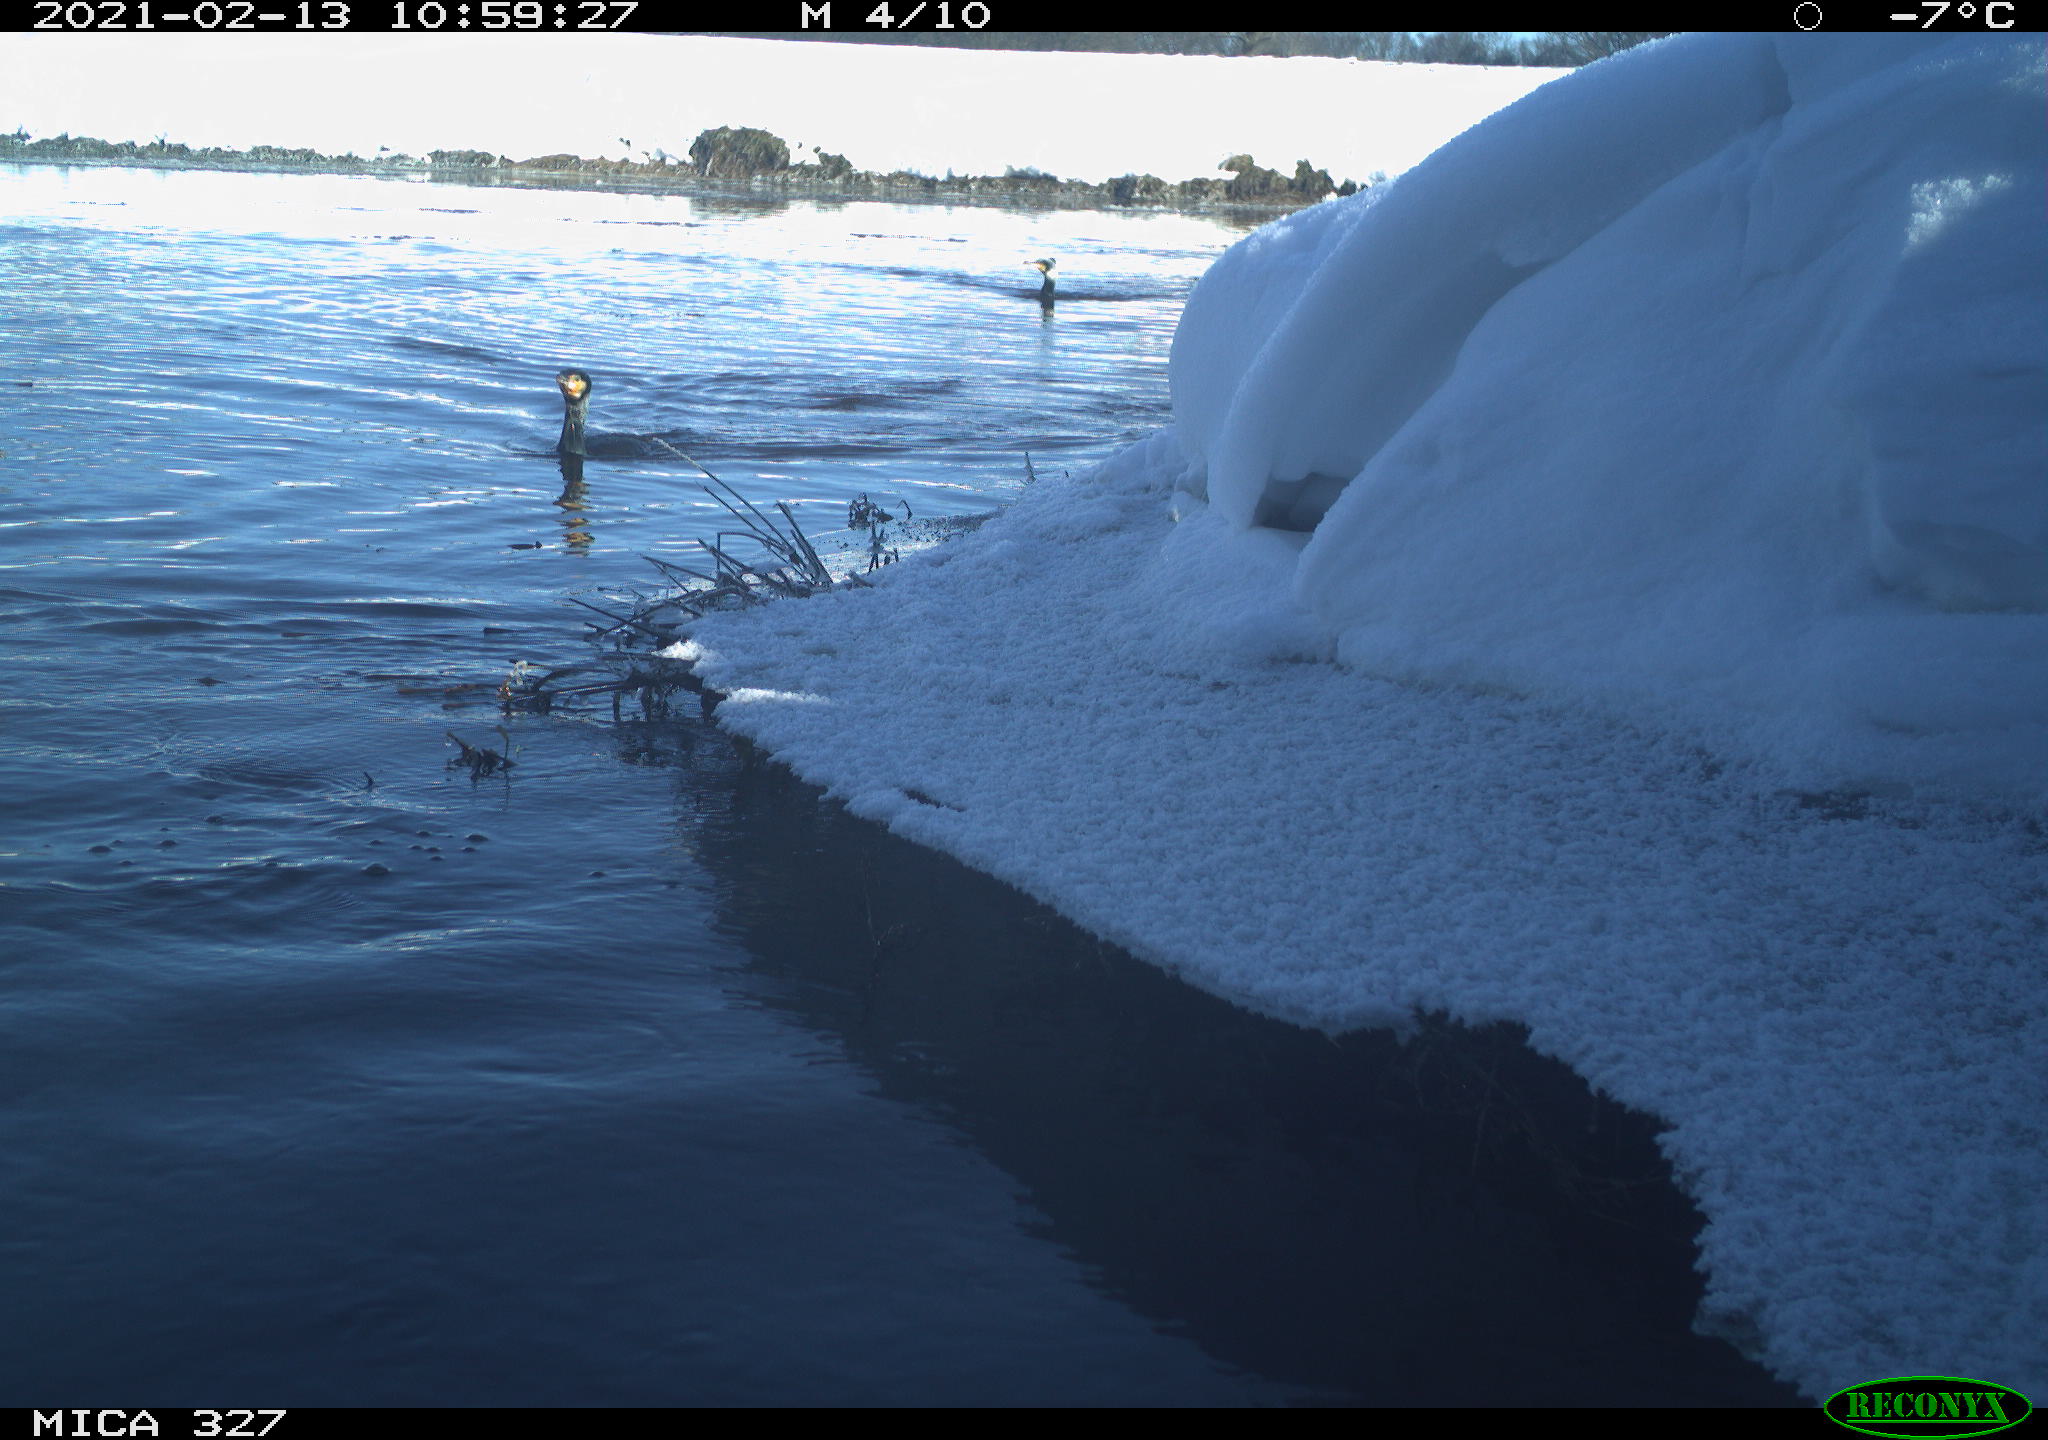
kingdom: Animalia
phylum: Chordata
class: Aves
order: Anseriformes
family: Anatidae
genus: Anas
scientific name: Anas
